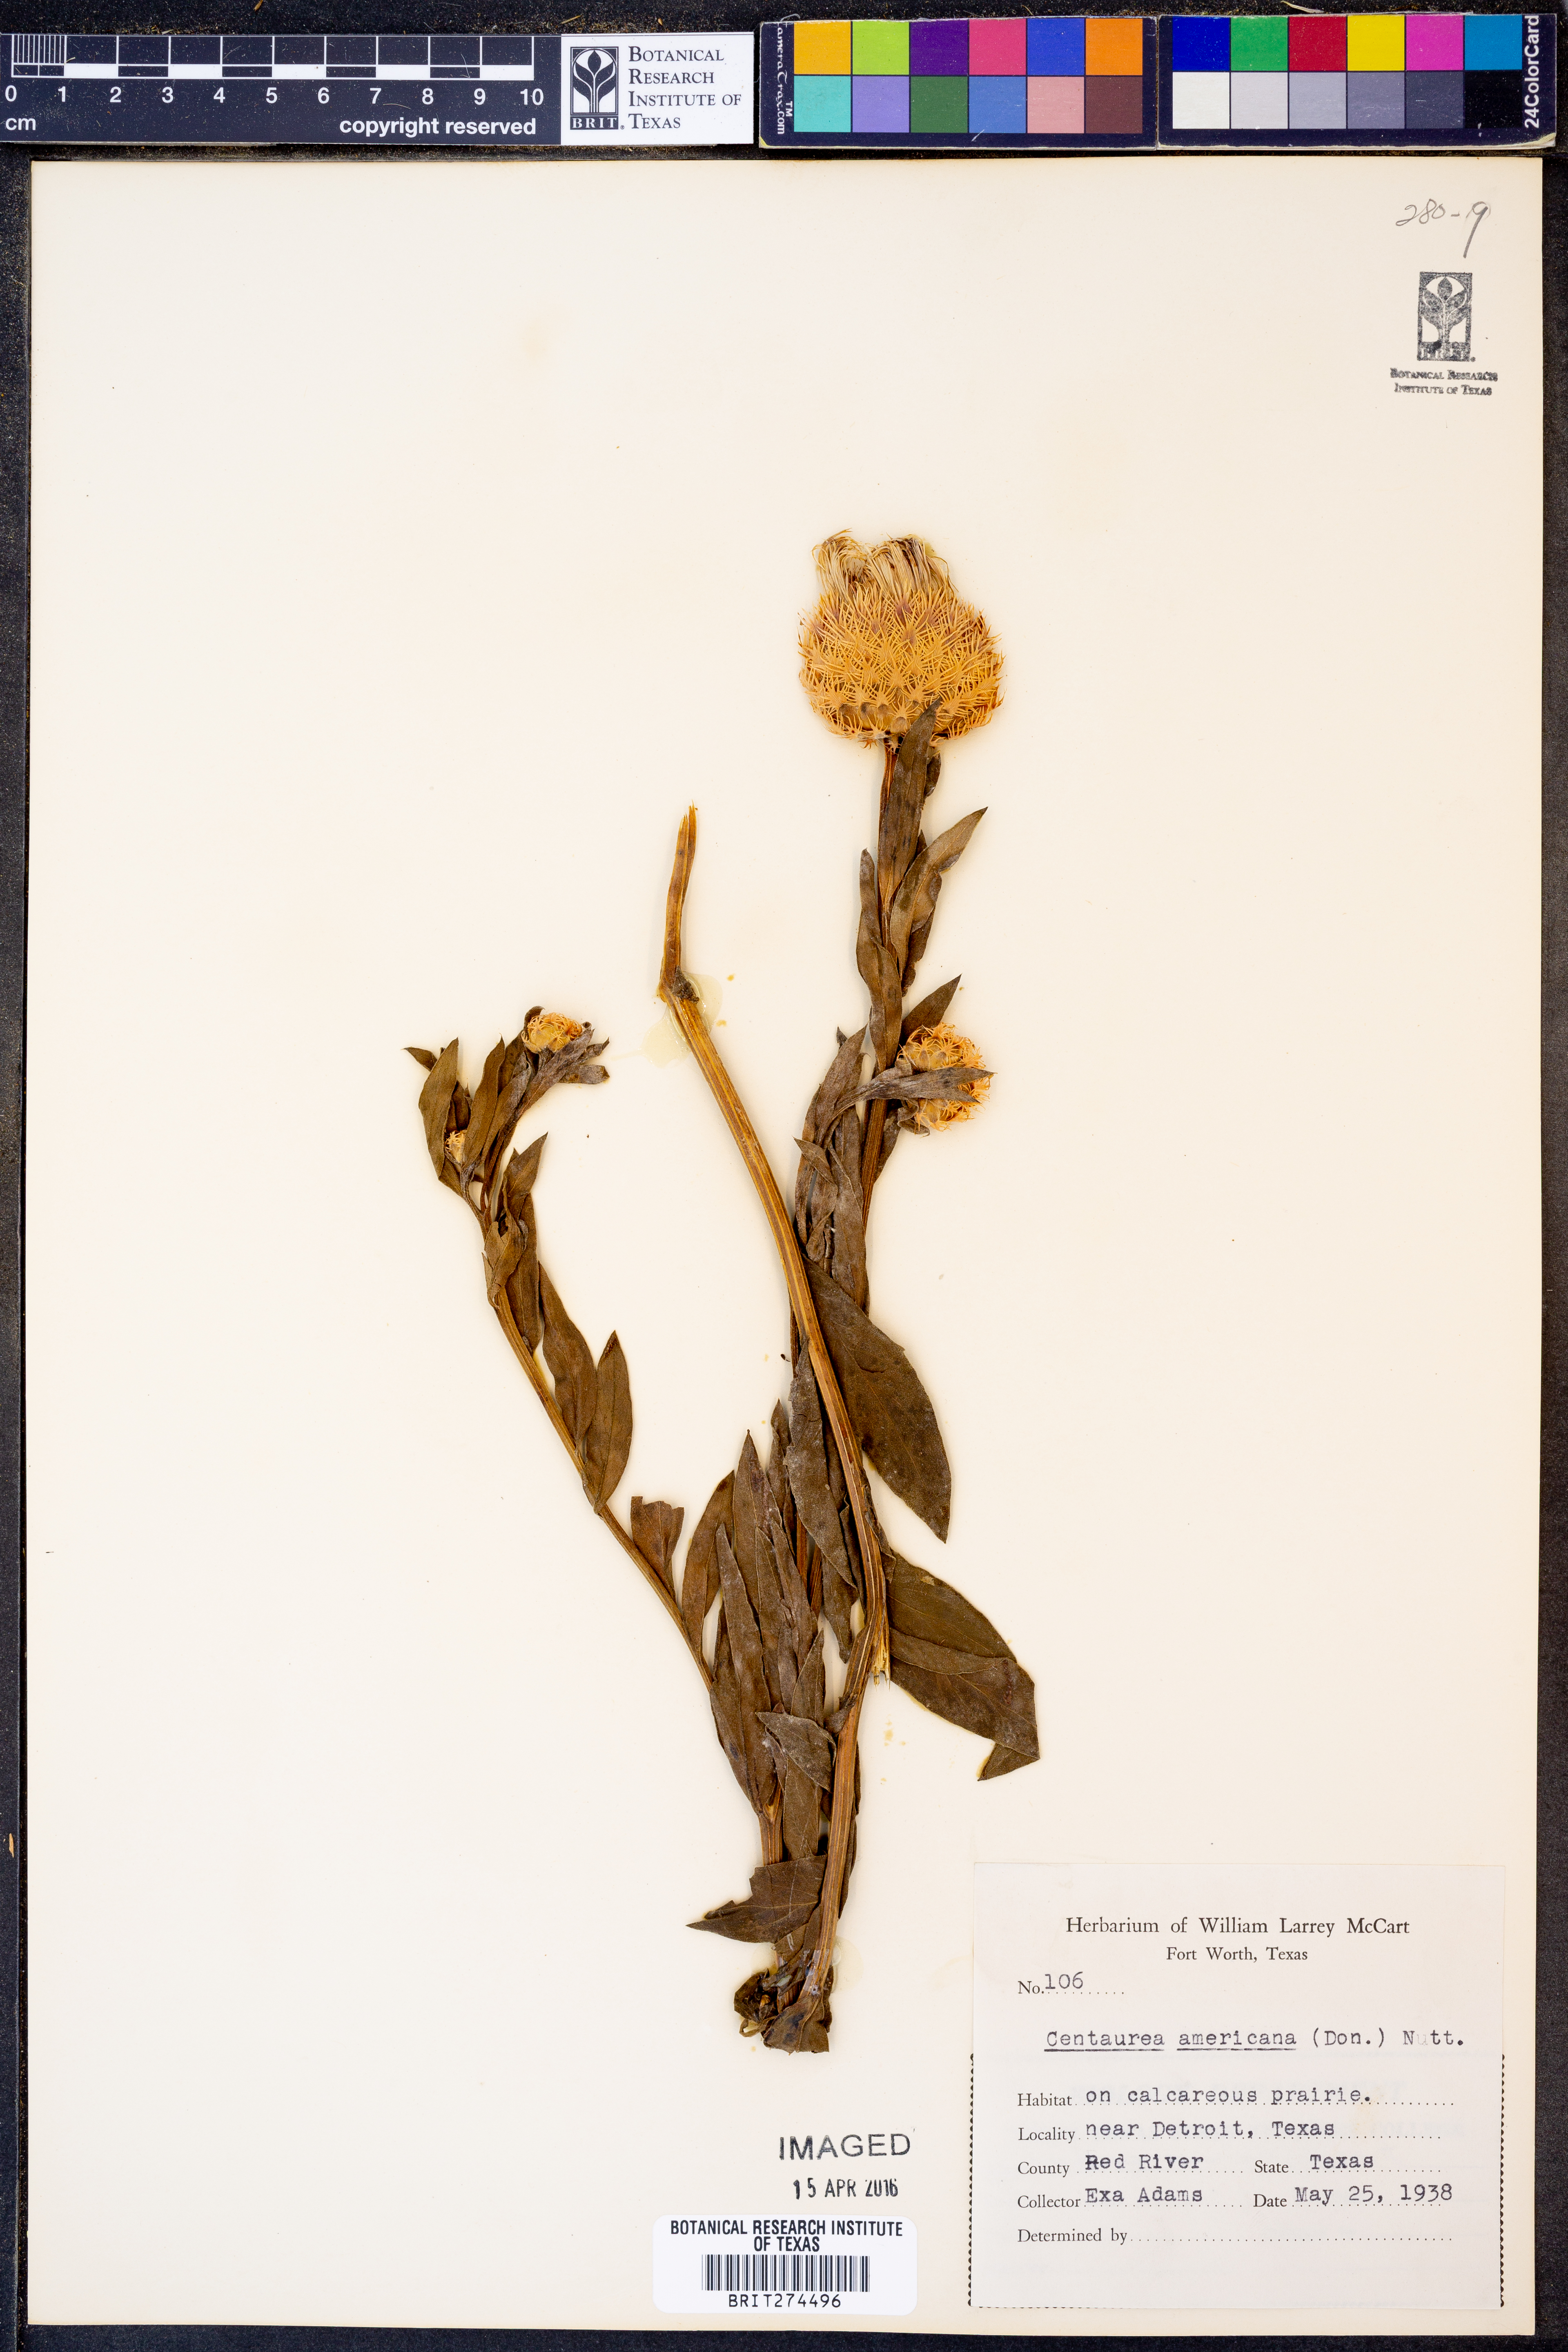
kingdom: Plantae
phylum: Tracheophyta
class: Magnoliopsida
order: Asterales
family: Asteraceae
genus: Plectocephalus
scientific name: Plectocephalus americanus
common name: American basket-flower
